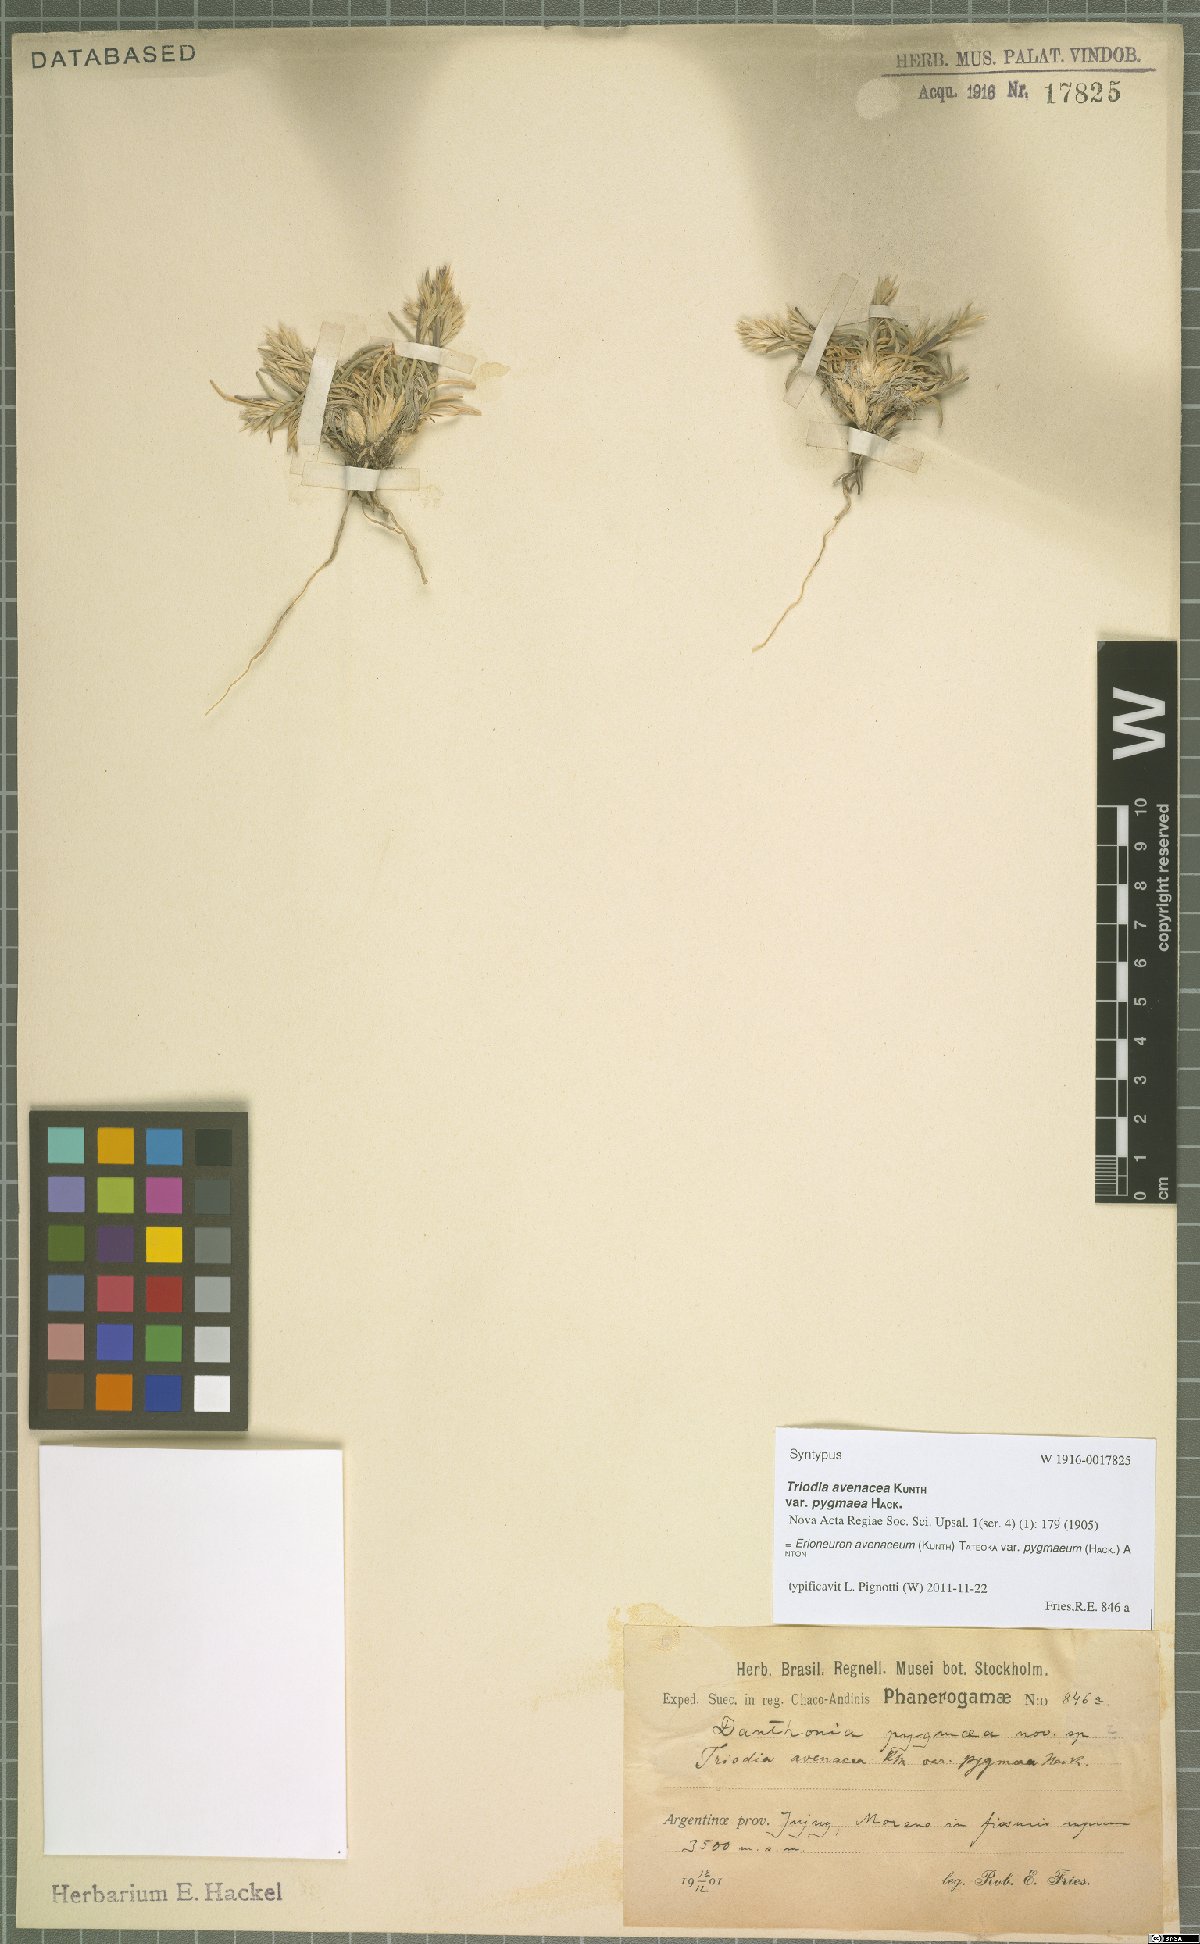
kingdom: Plantae
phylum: Tracheophyta
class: Liliopsida
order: Poales
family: Poaceae
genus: Erioneuron
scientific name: Erioneuron pilosum
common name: Hairy woolly grass
